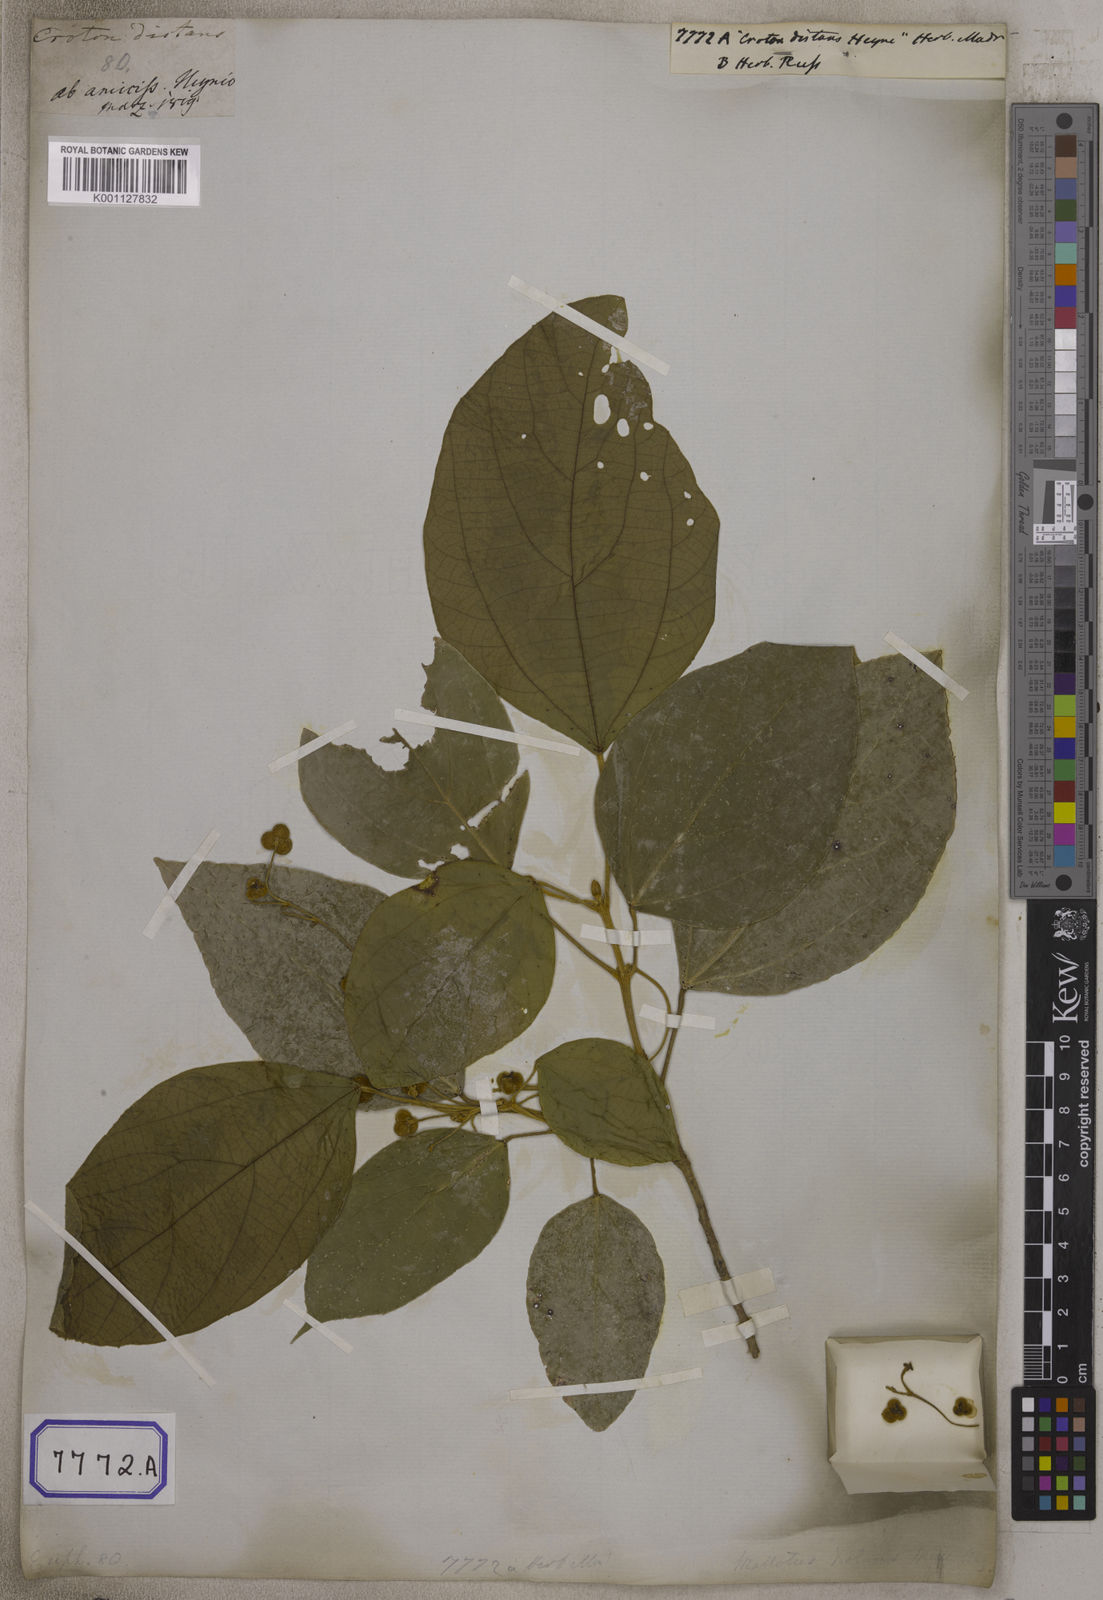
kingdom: Plantae
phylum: Tracheophyta
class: Magnoliopsida
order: Malpighiales
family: Euphorbiaceae
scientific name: Euphorbiaceae
